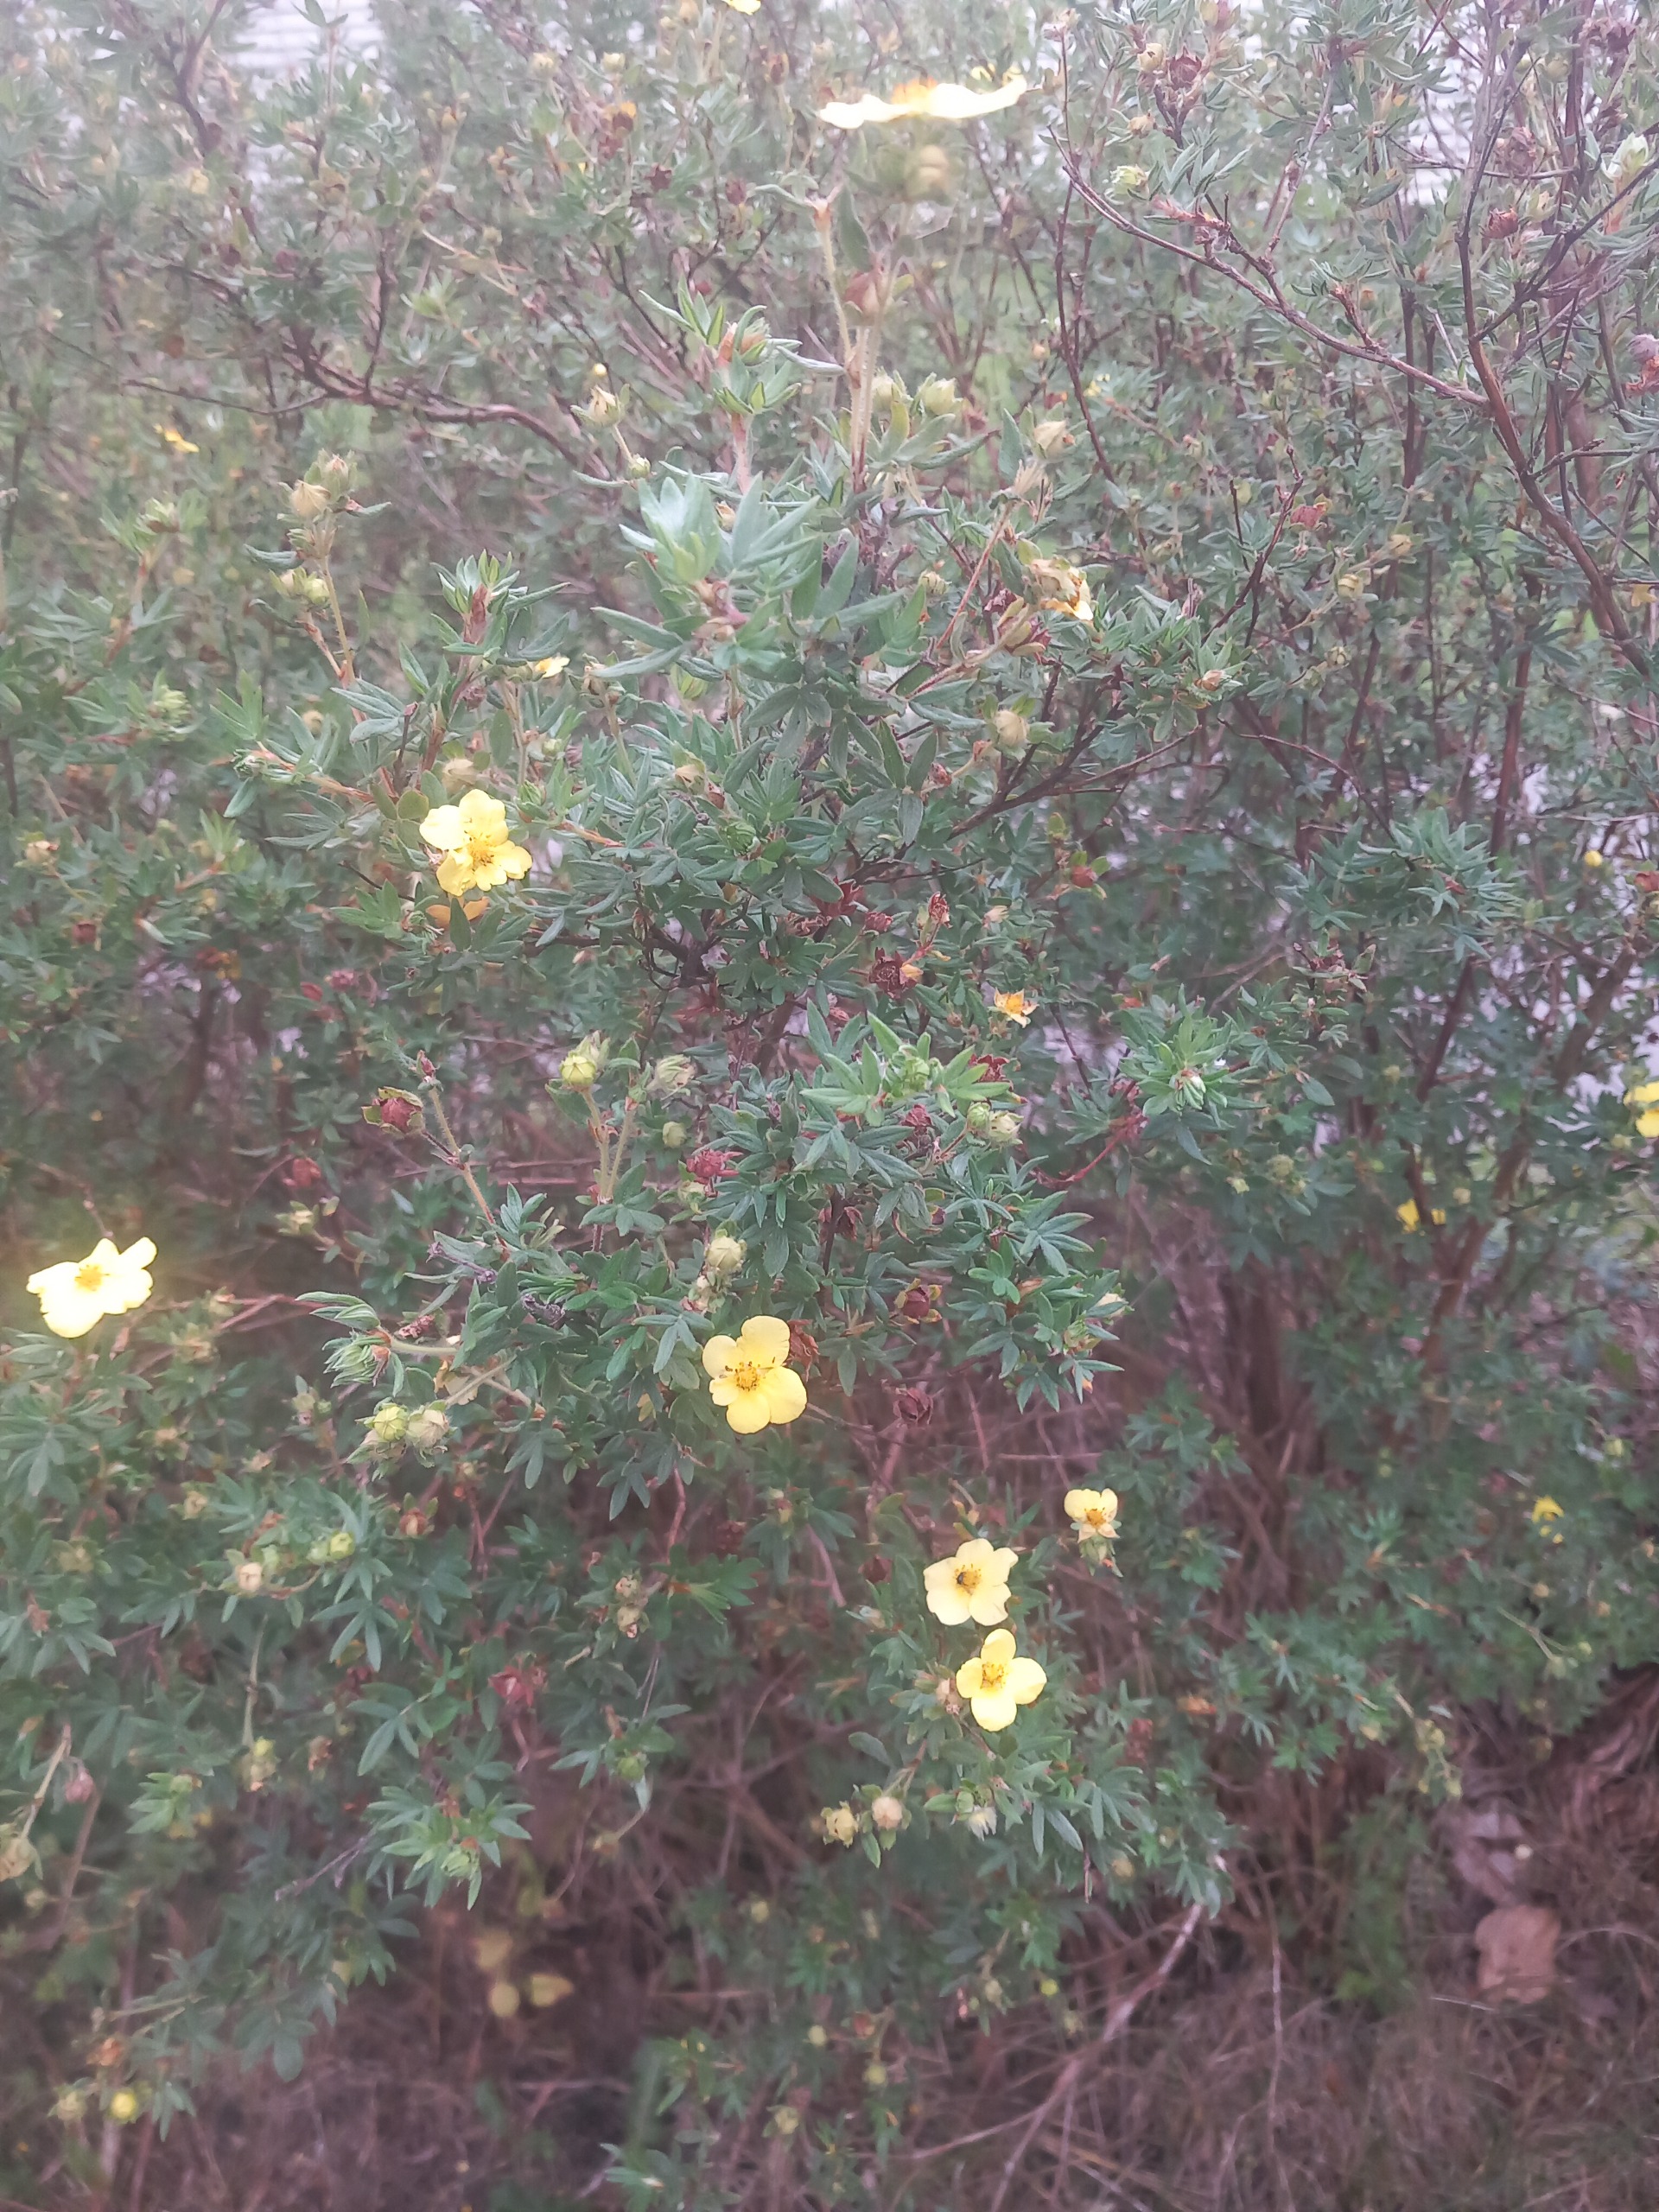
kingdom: Plantae
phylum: Tracheophyta
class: Magnoliopsida
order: Rosales
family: Rosaceae
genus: Dasiphora
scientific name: Dasiphora fruticosa
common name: Buskpotentil
